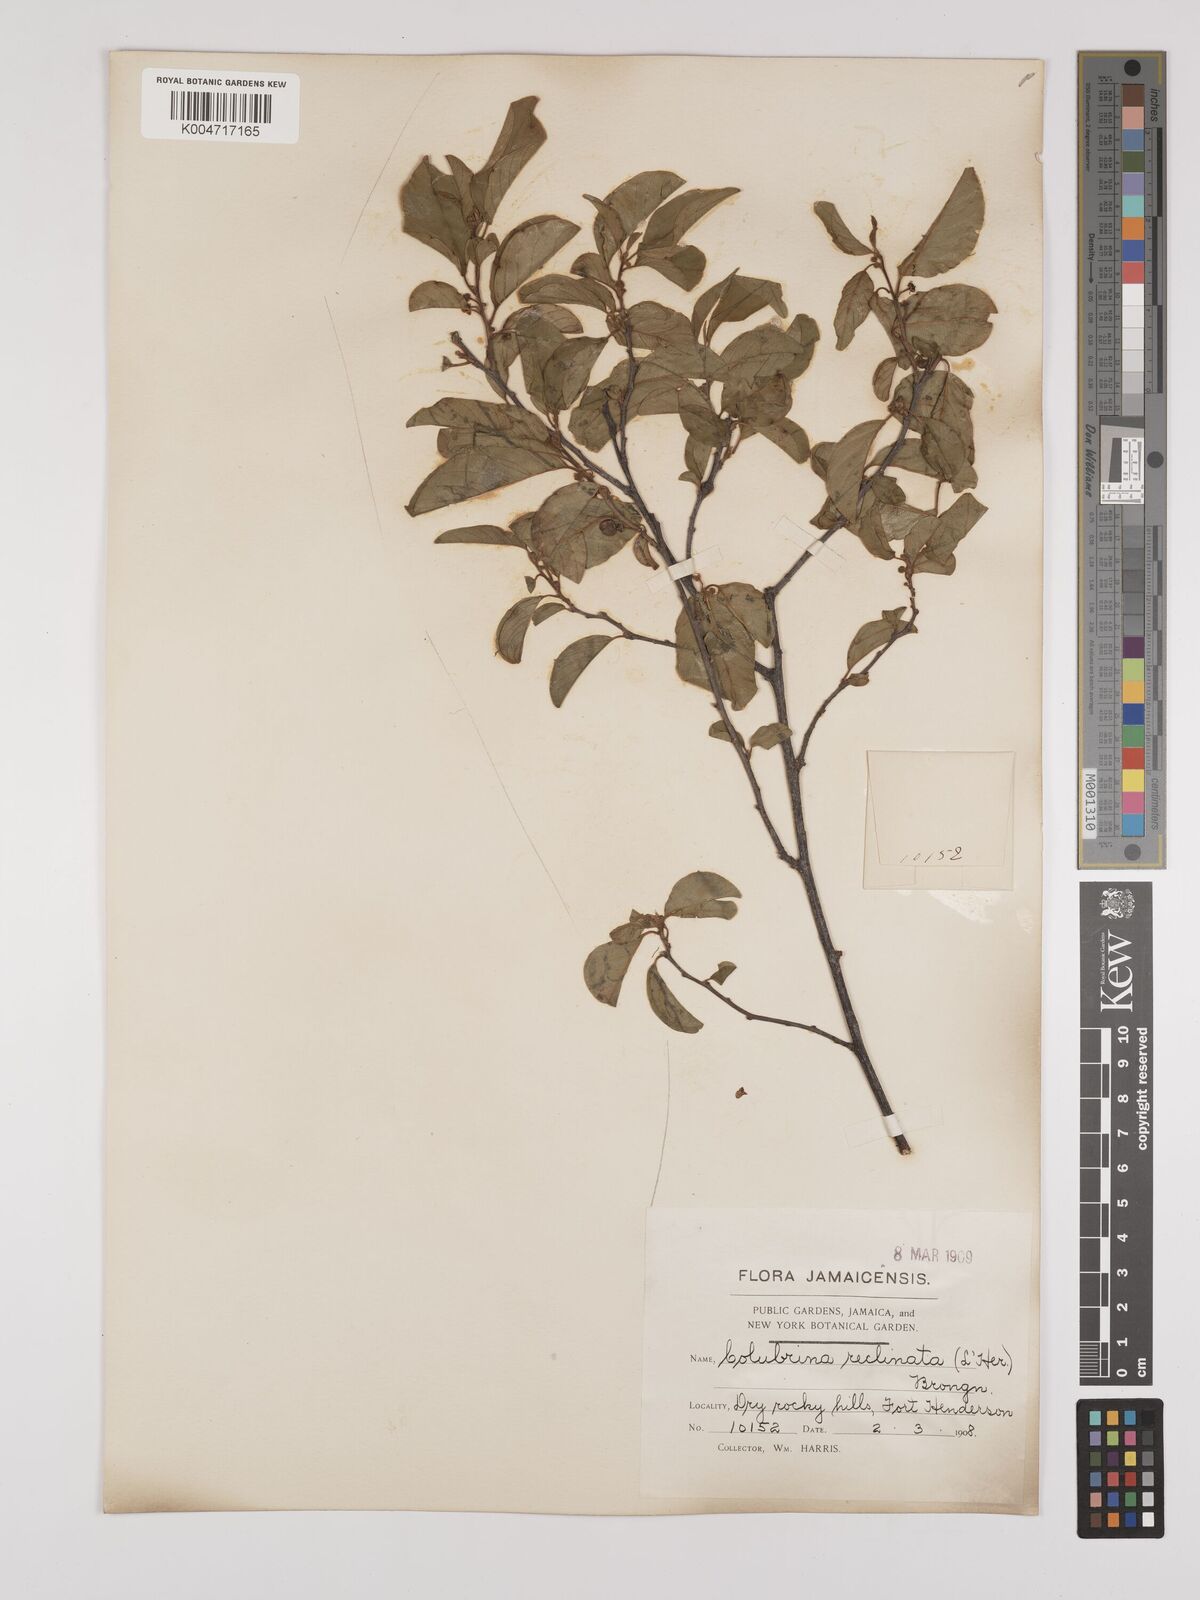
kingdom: Plantae
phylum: Tracheophyta
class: Magnoliopsida
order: Rosales
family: Rhamnaceae
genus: Colubrina
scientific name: Colubrina elliptica
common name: Soldierwood
